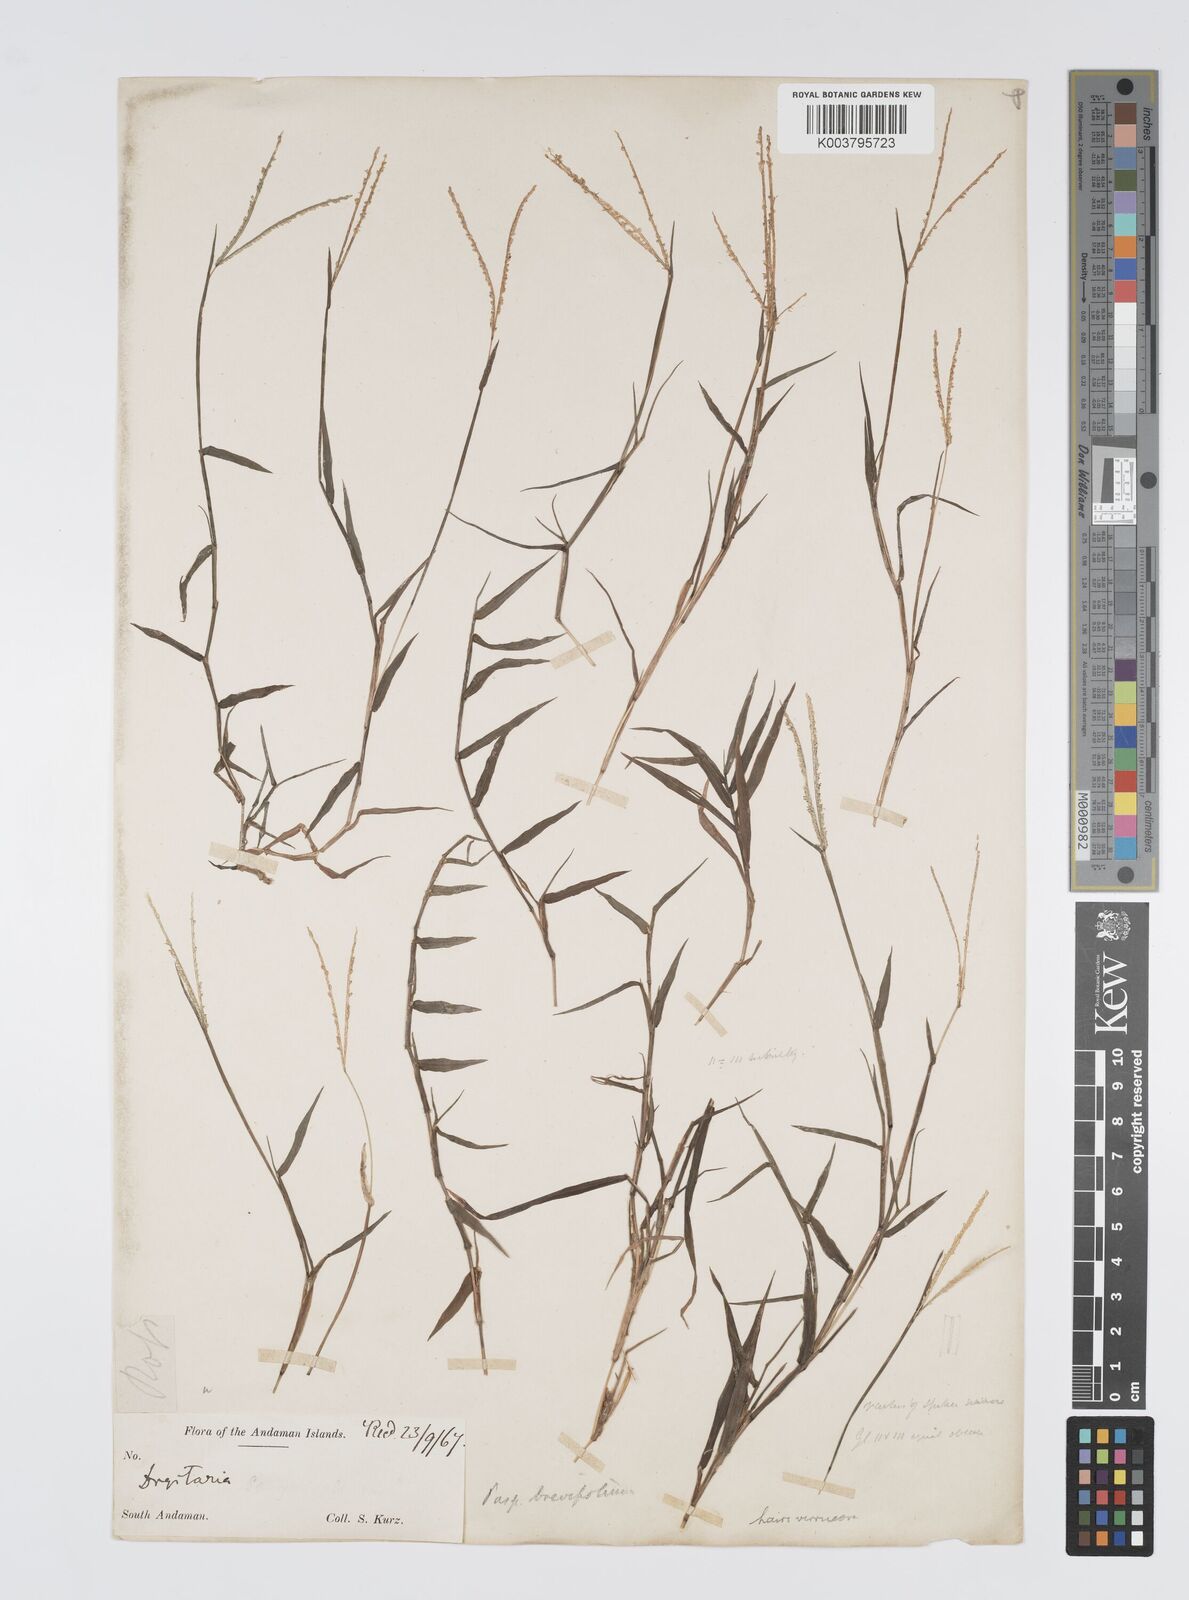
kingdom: Plantae
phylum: Tracheophyta
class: Liliopsida
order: Poales
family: Poaceae
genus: Digitaria
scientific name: Digitaria longiflora
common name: Wire crabgrass
